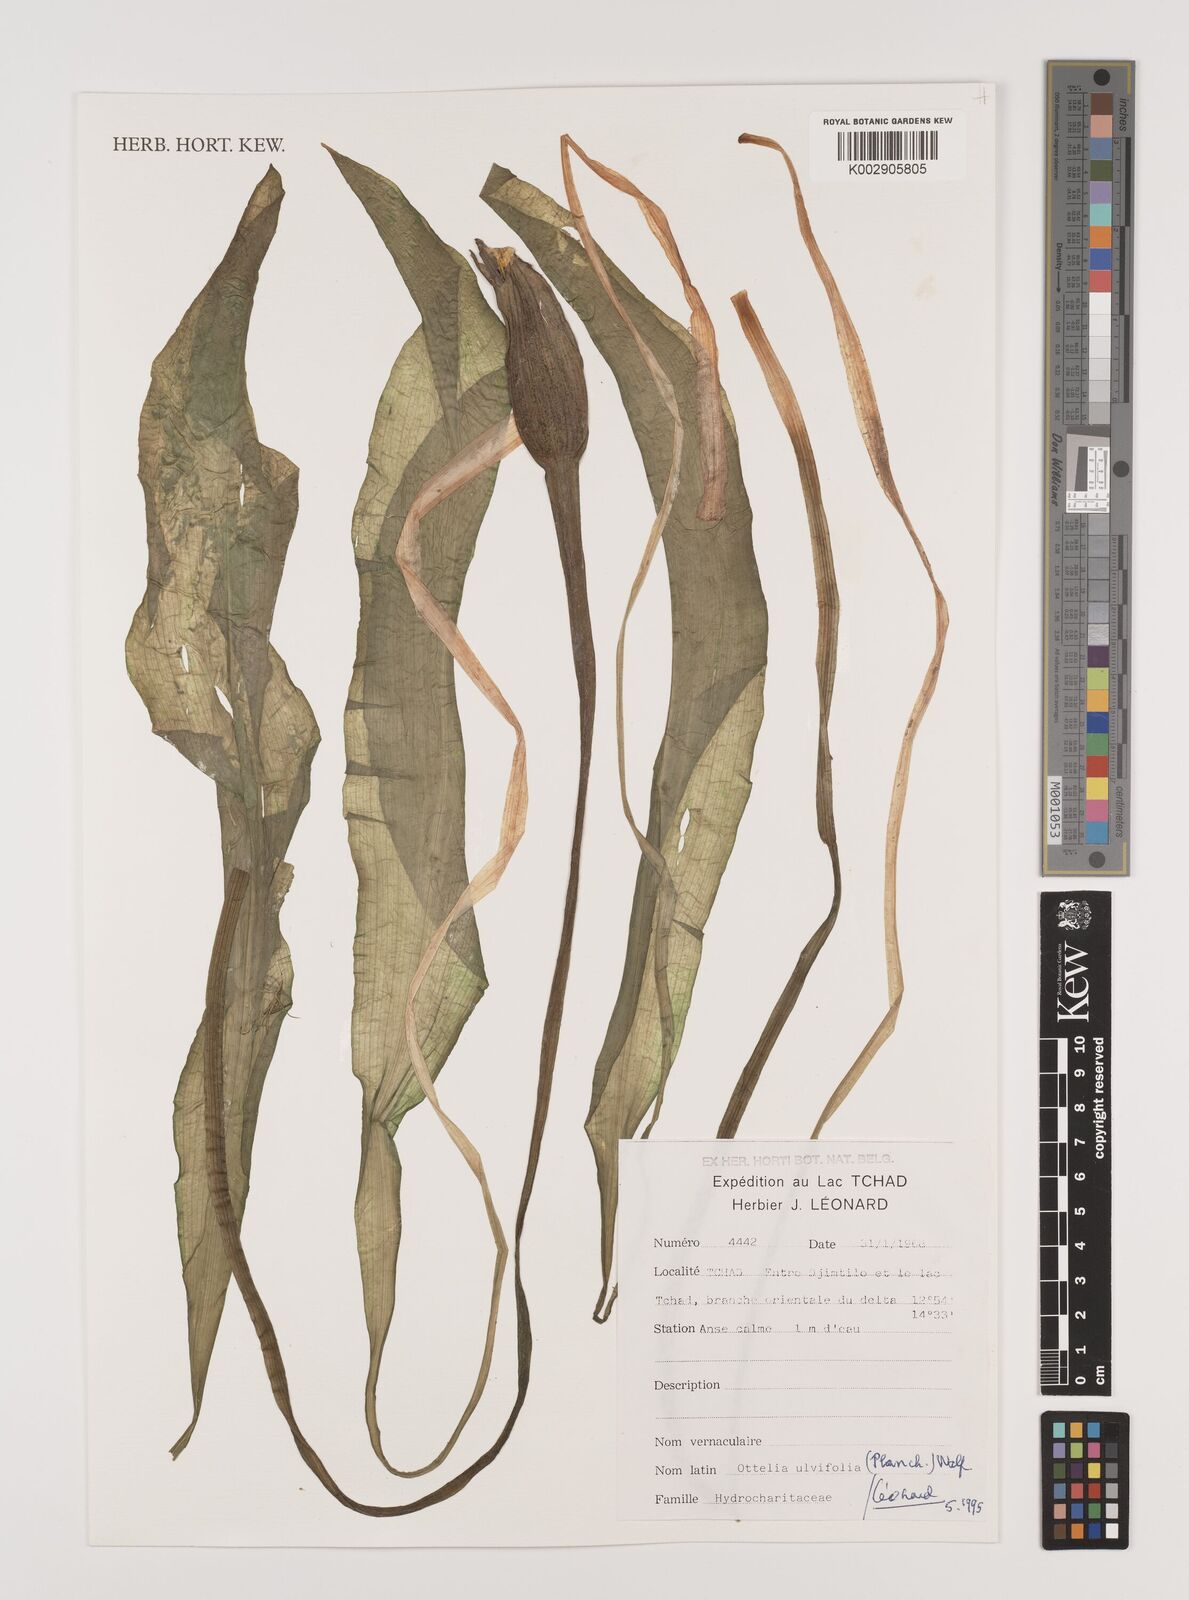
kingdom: Plantae
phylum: Tracheophyta
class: Liliopsida
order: Alismatales
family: Hydrocharitaceae
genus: Ottelia
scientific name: Ottelia ulvifolia
